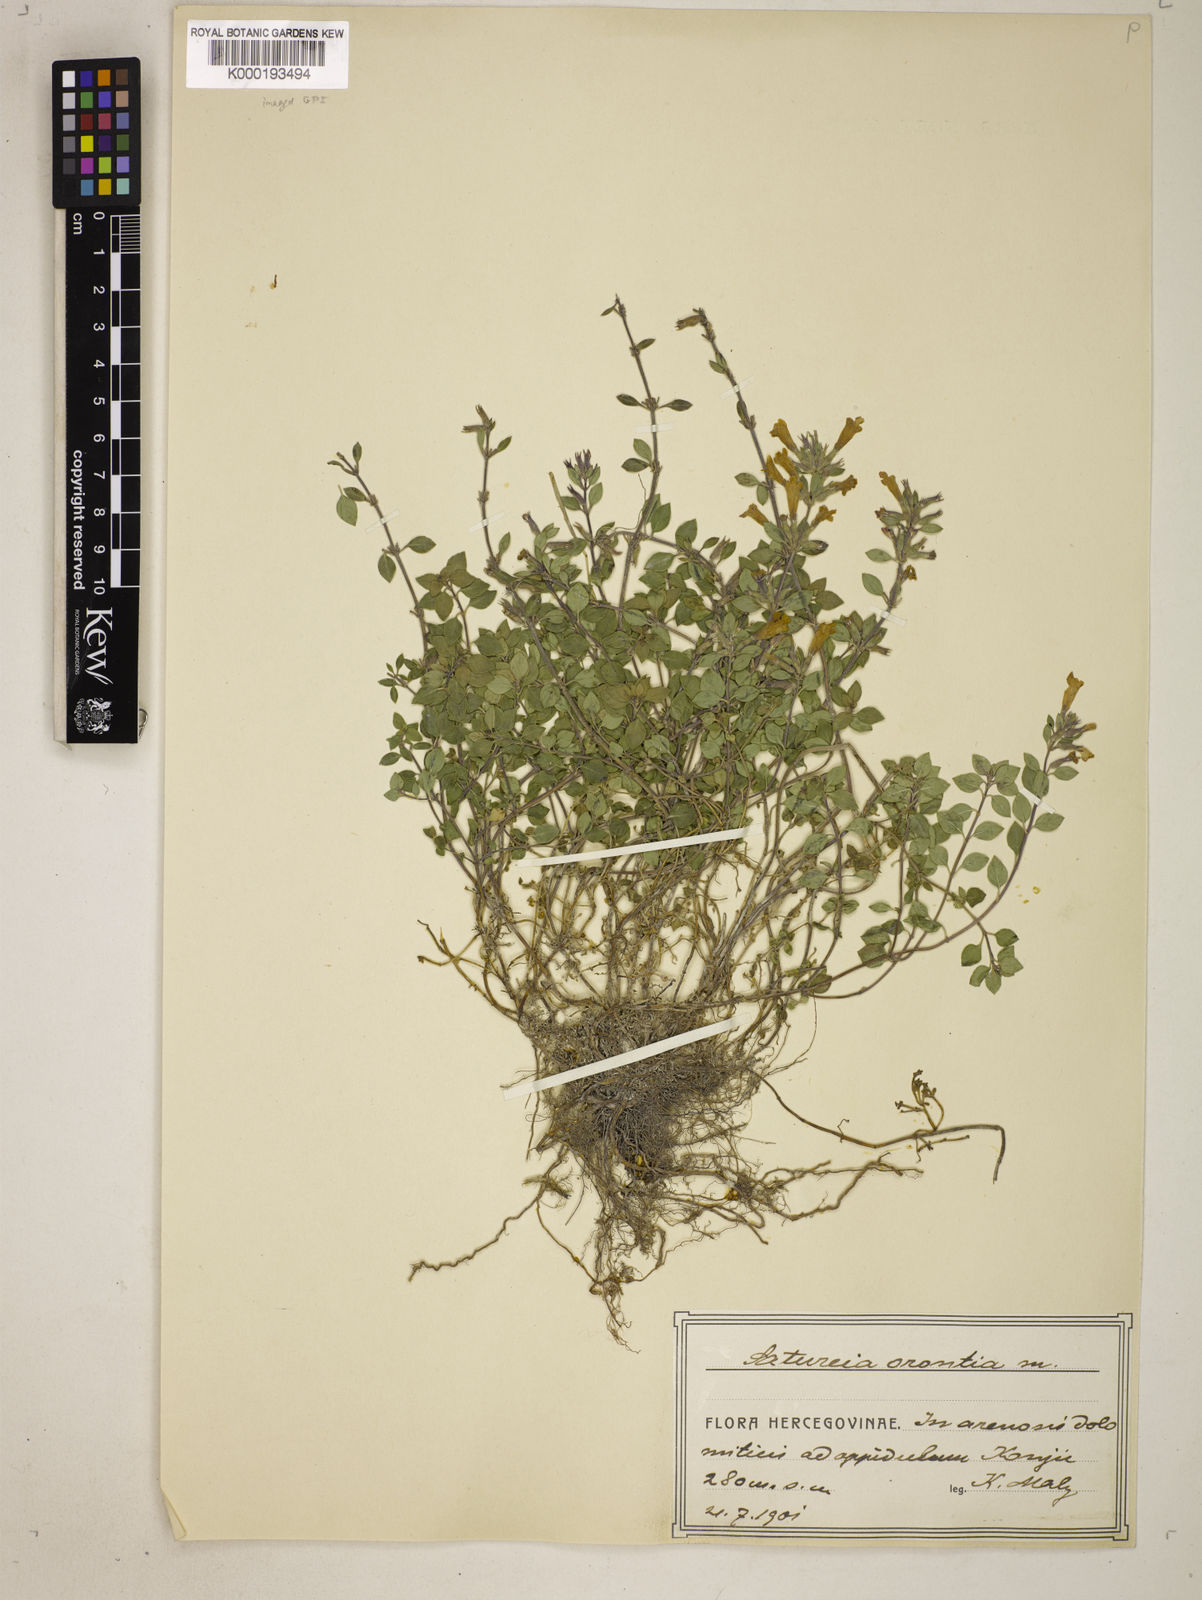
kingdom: Plantae
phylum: Tracheophyta
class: Magnoliopsida
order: Lamiales
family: Lamiaceae
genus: Satureja
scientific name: Satureja
